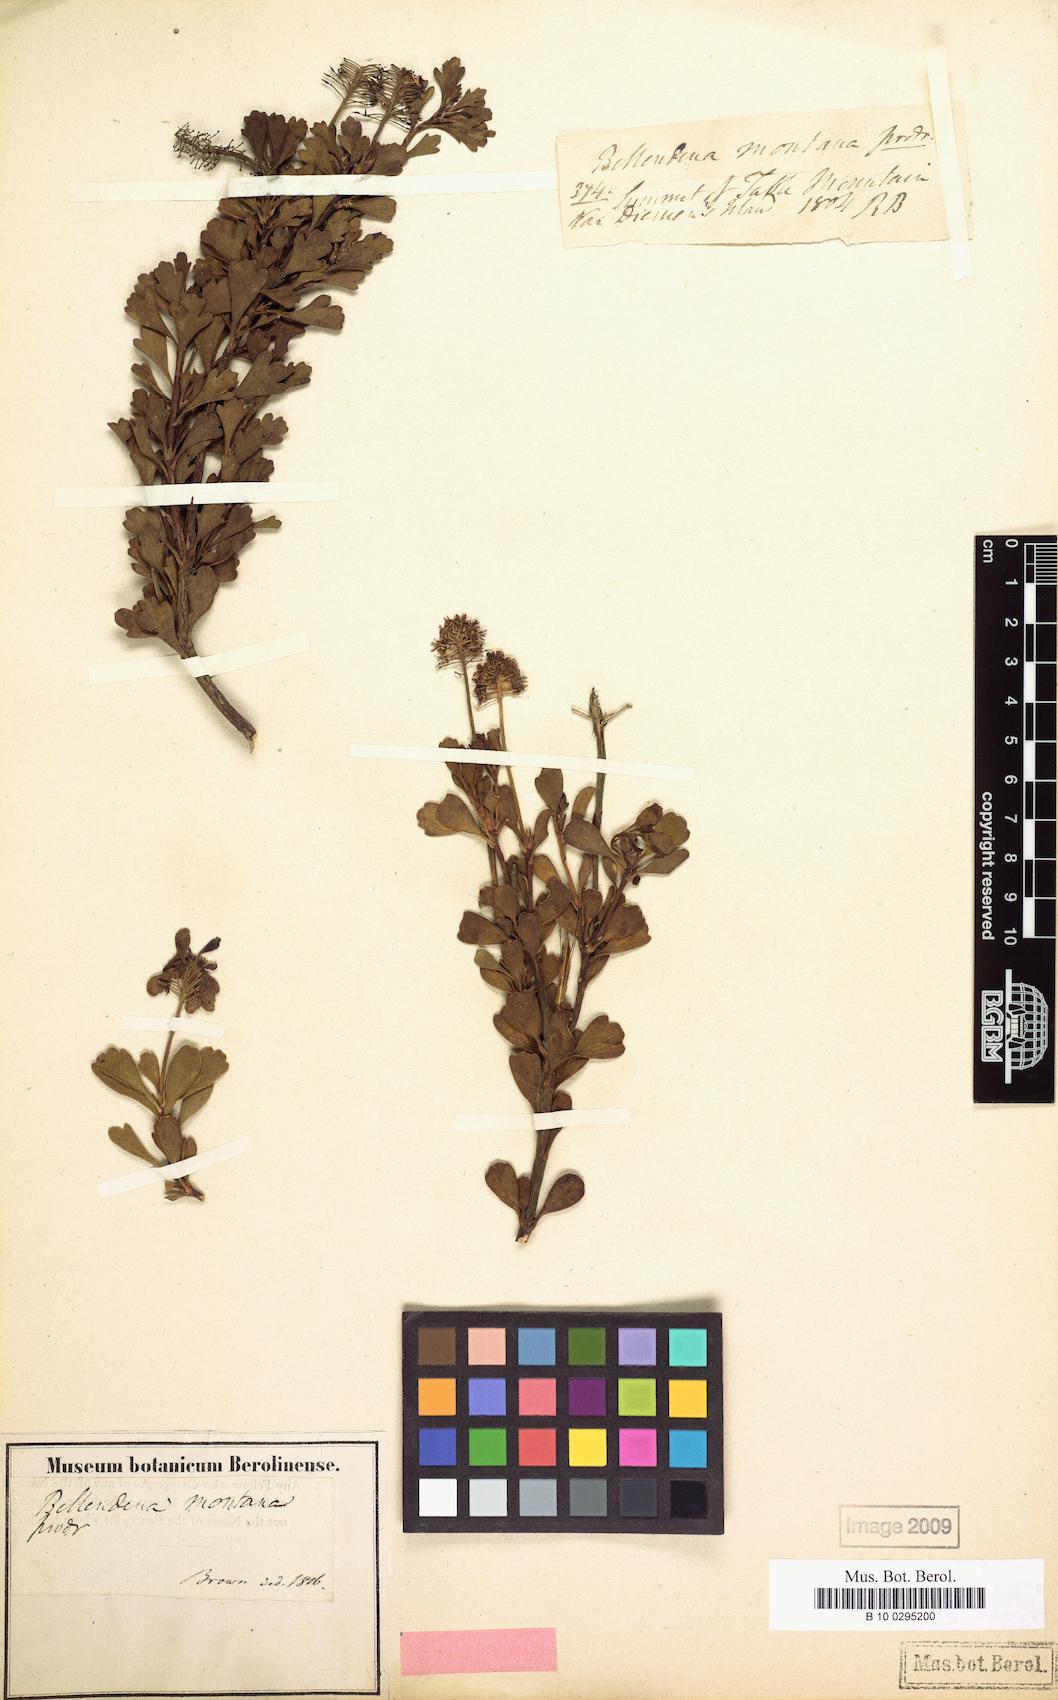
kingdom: Plantae
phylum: Tracheophyta
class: Magnoliopsida
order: Proteales
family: Proteaceae
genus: Bellendena
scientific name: Bellendena montana
